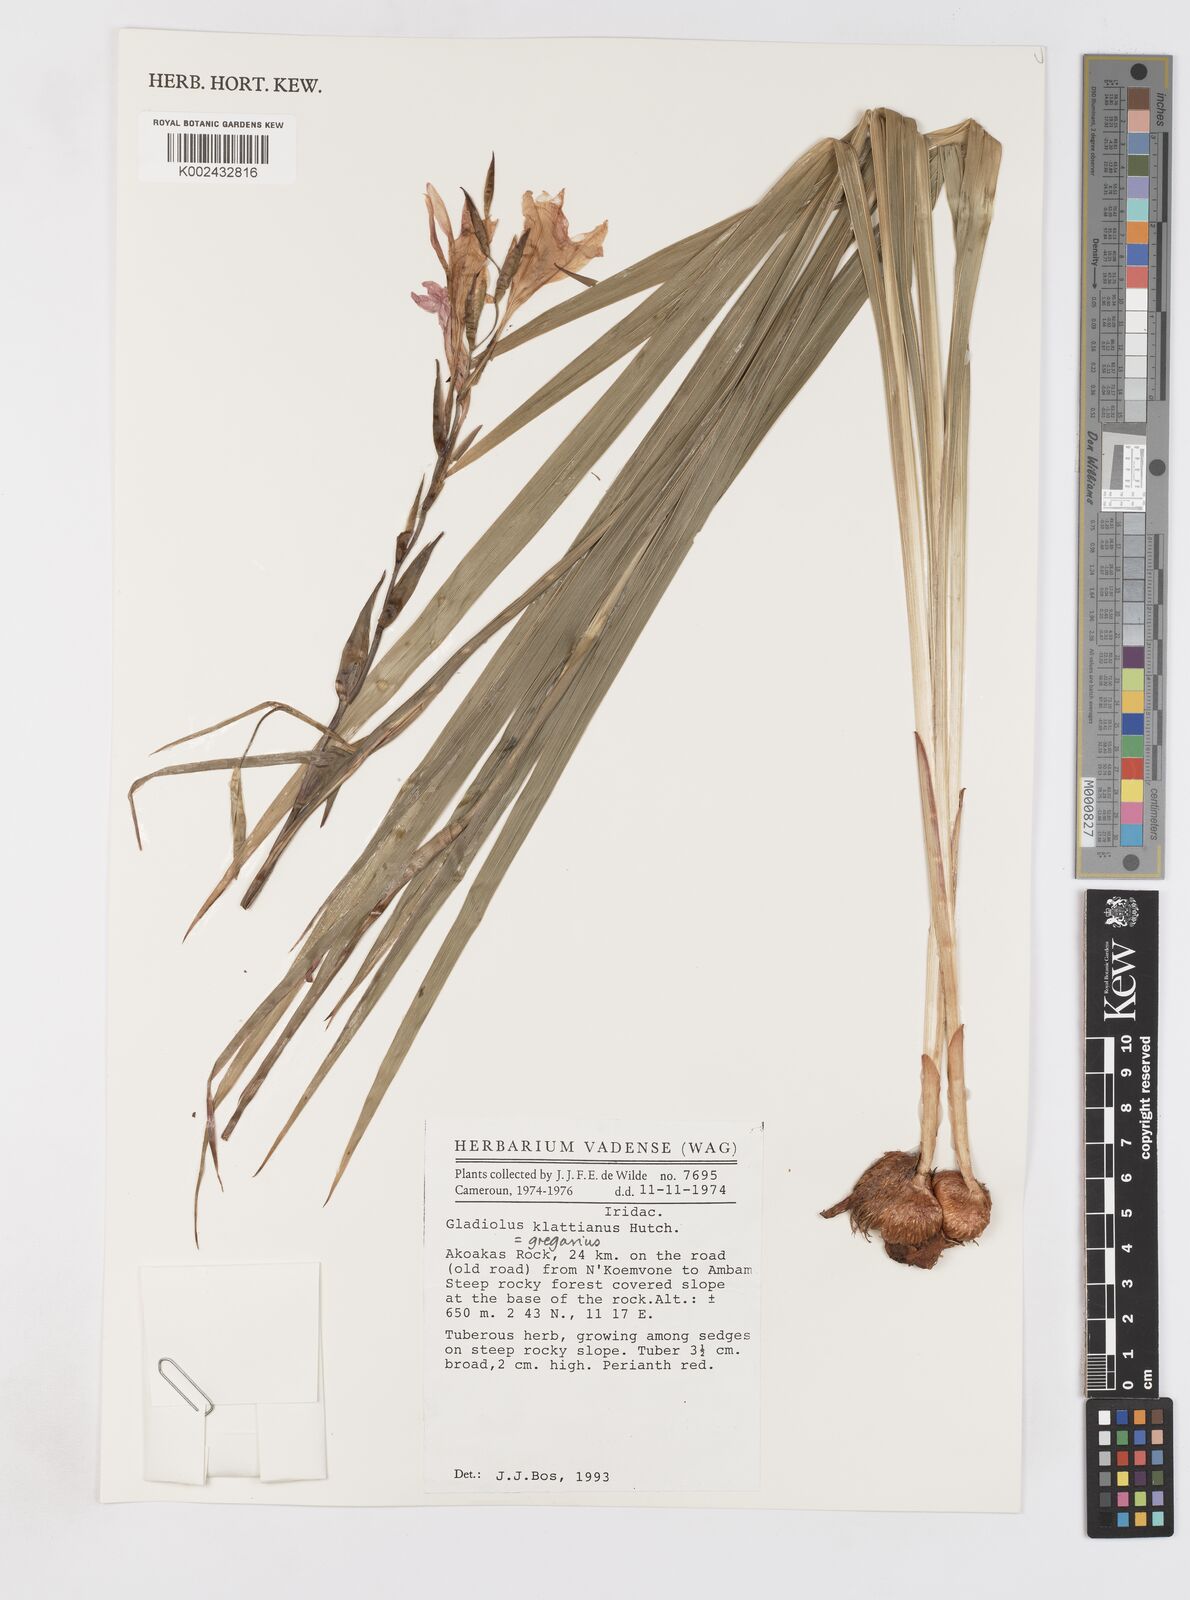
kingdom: Plantae
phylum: Tracheophyta
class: Liliopsida
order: Asparagales
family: Iridaceae
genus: Gladiolus
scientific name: Gladiolus gregarius
